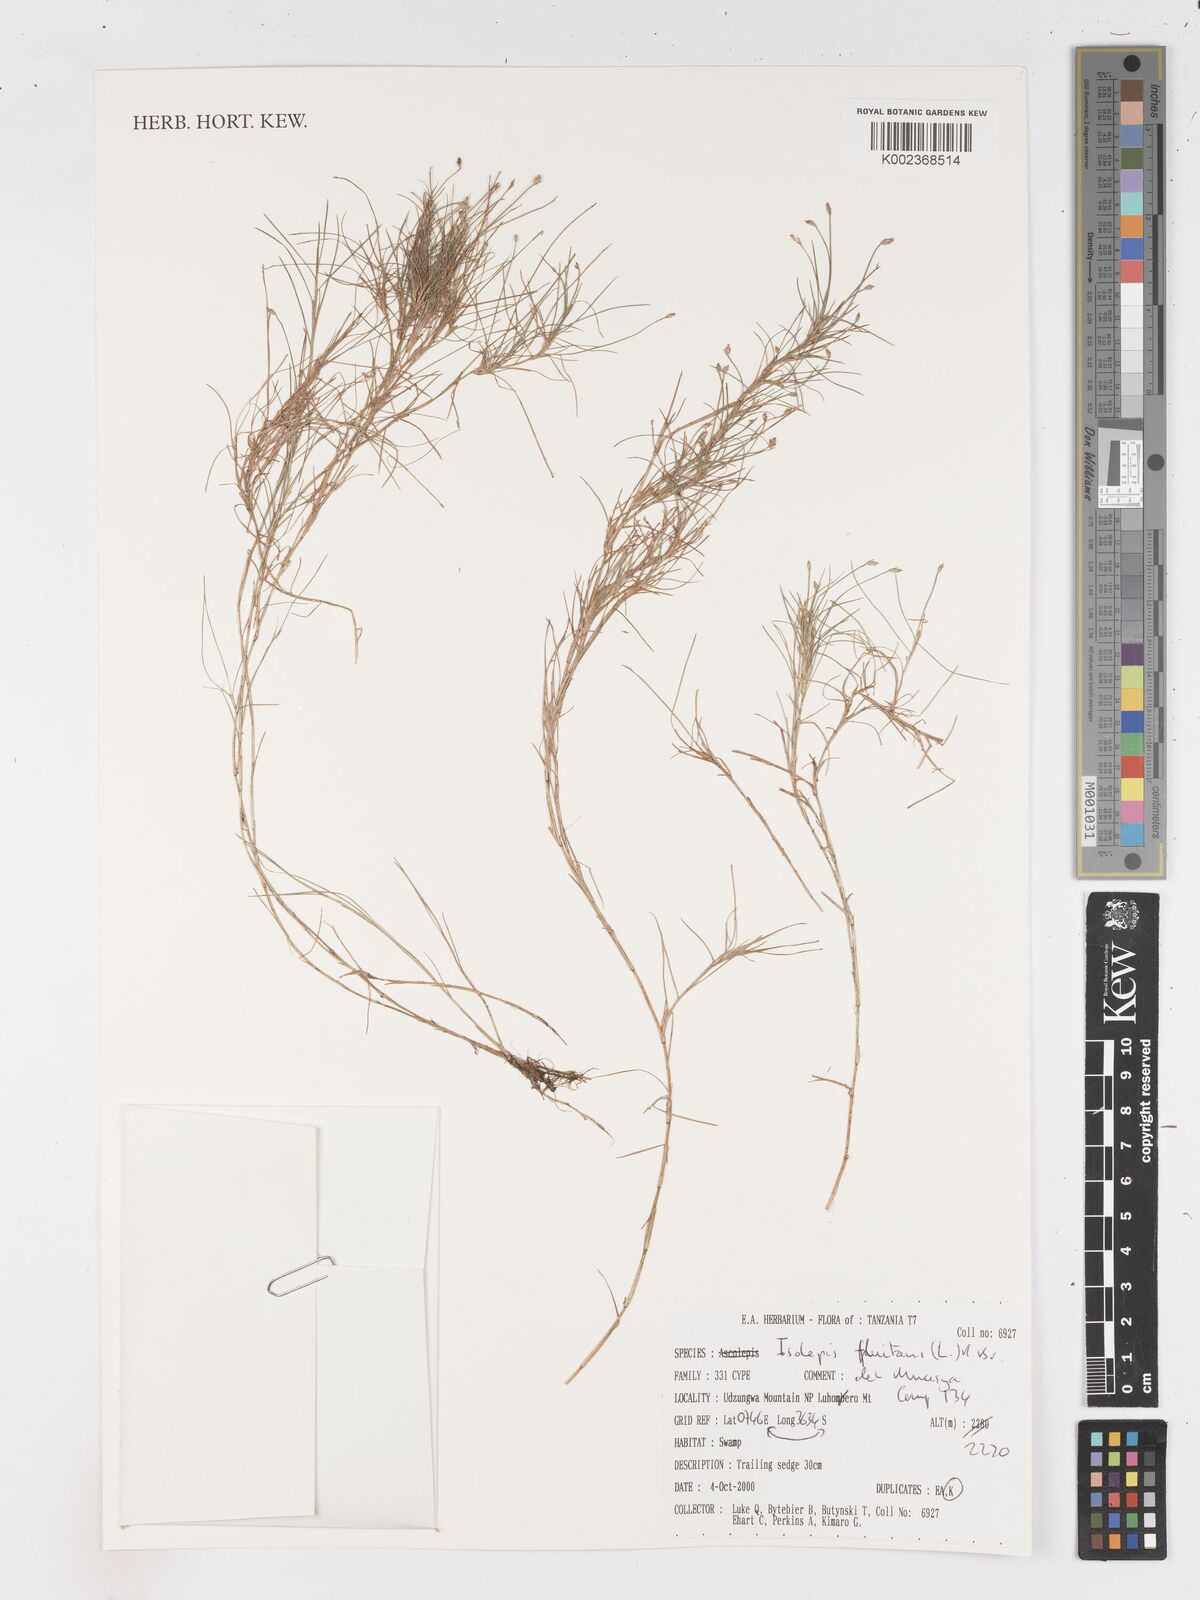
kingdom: Plantae
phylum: Tracheophyta
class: Liliopsida
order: Poales
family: Cyperaceae
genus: Isolepis
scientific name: Isolepis fluitans
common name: Floating club-rush
